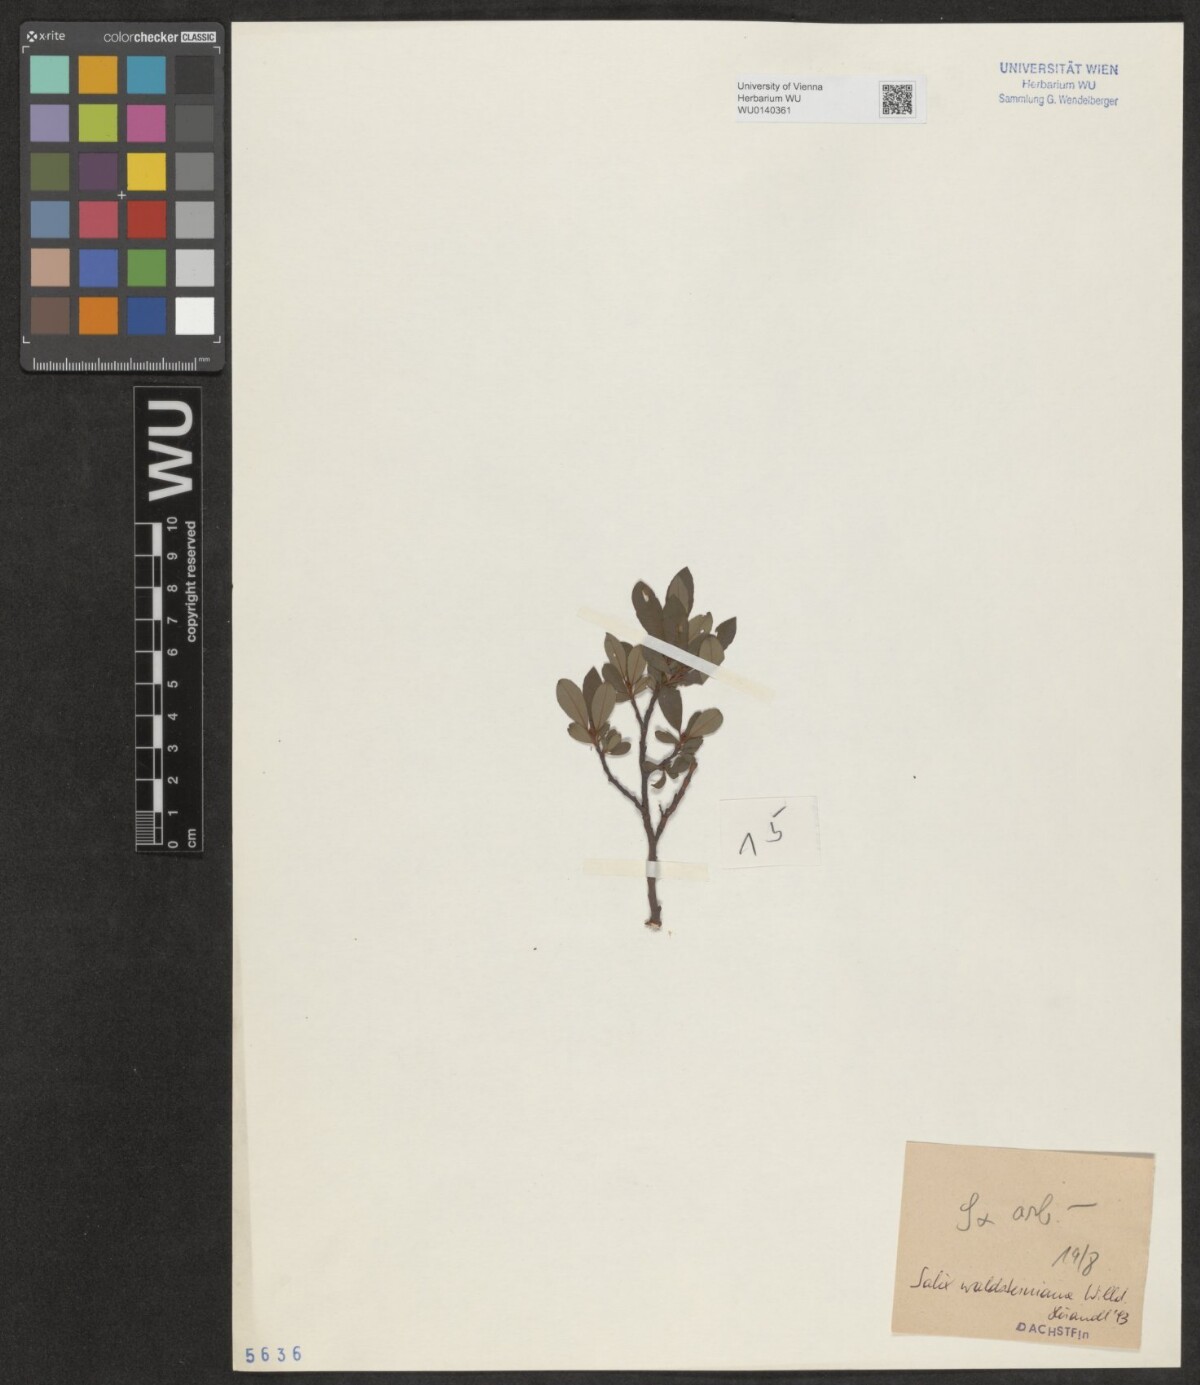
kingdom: Plantae
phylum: Tracheophyta
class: Magnoliopsida
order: Malpighiales
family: Salicaceae
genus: Salix
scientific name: Salix waldsteiniana
